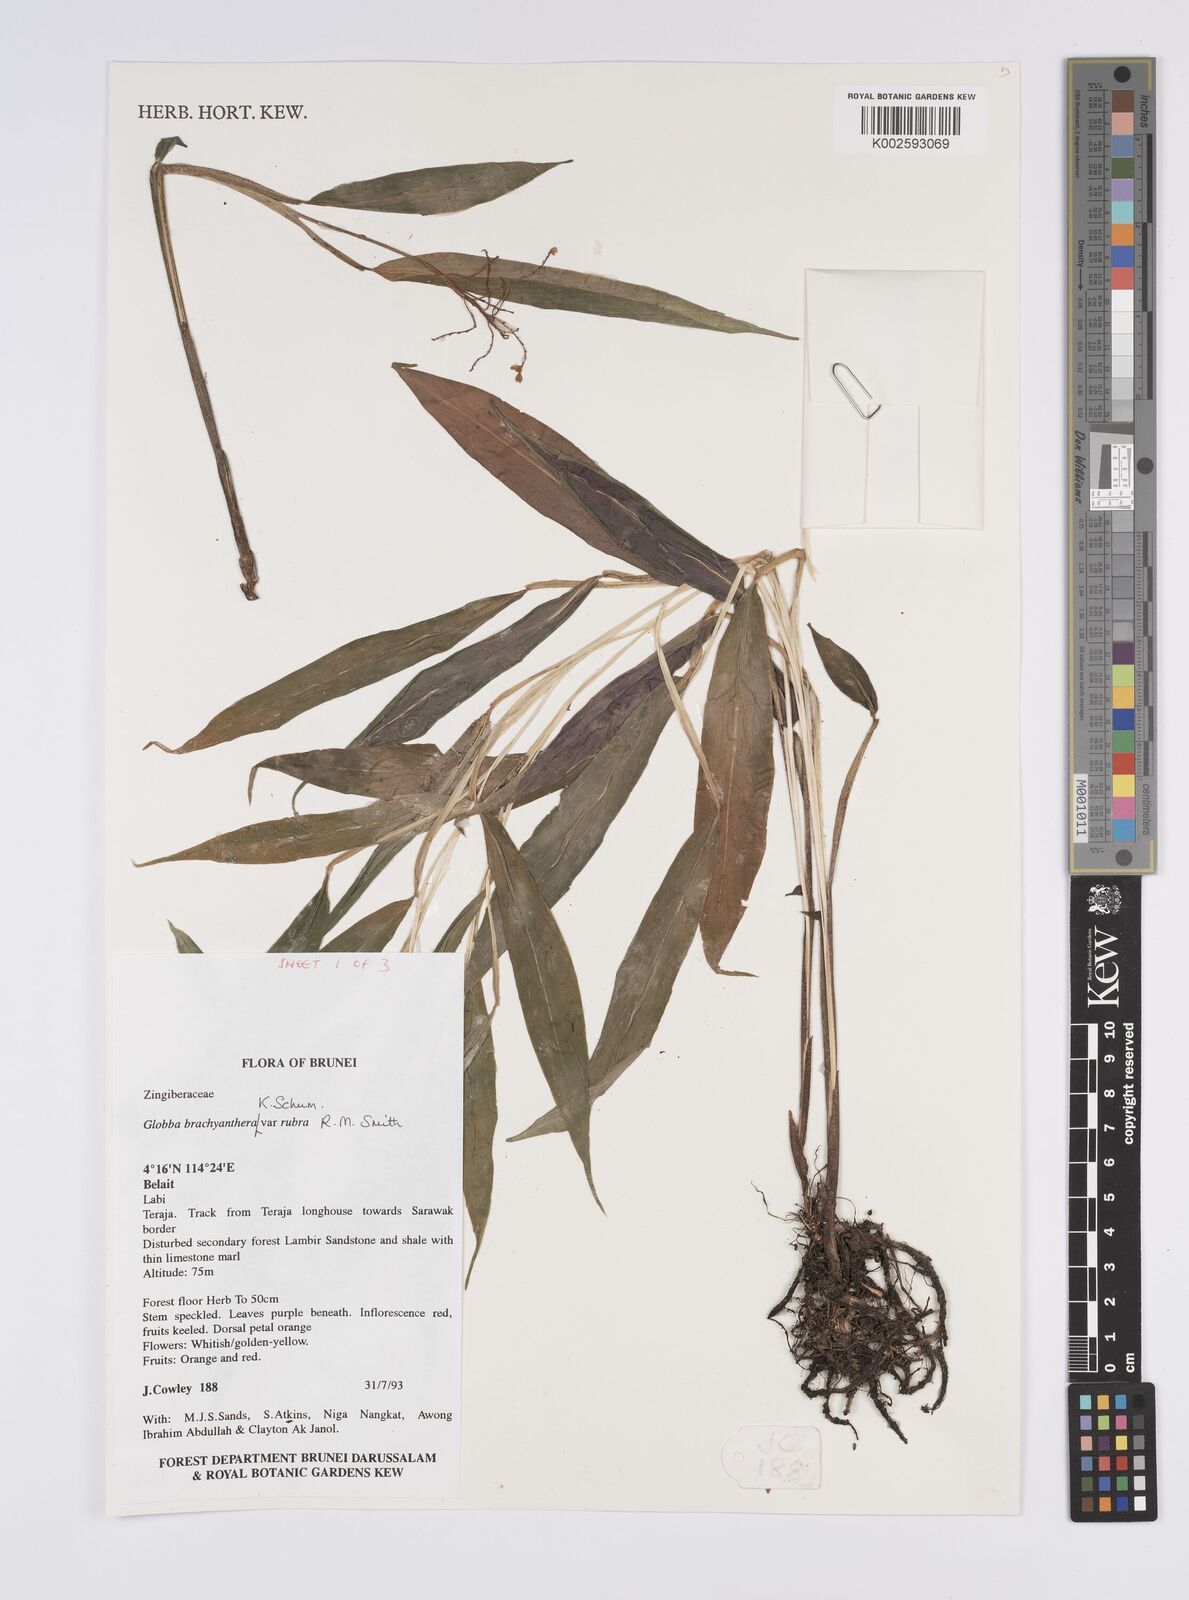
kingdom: Plantae
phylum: Tracheophyta
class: Liliopsida
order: Zingiberales
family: Zingiberaceae
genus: Globba
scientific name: Globba brachyanthera
